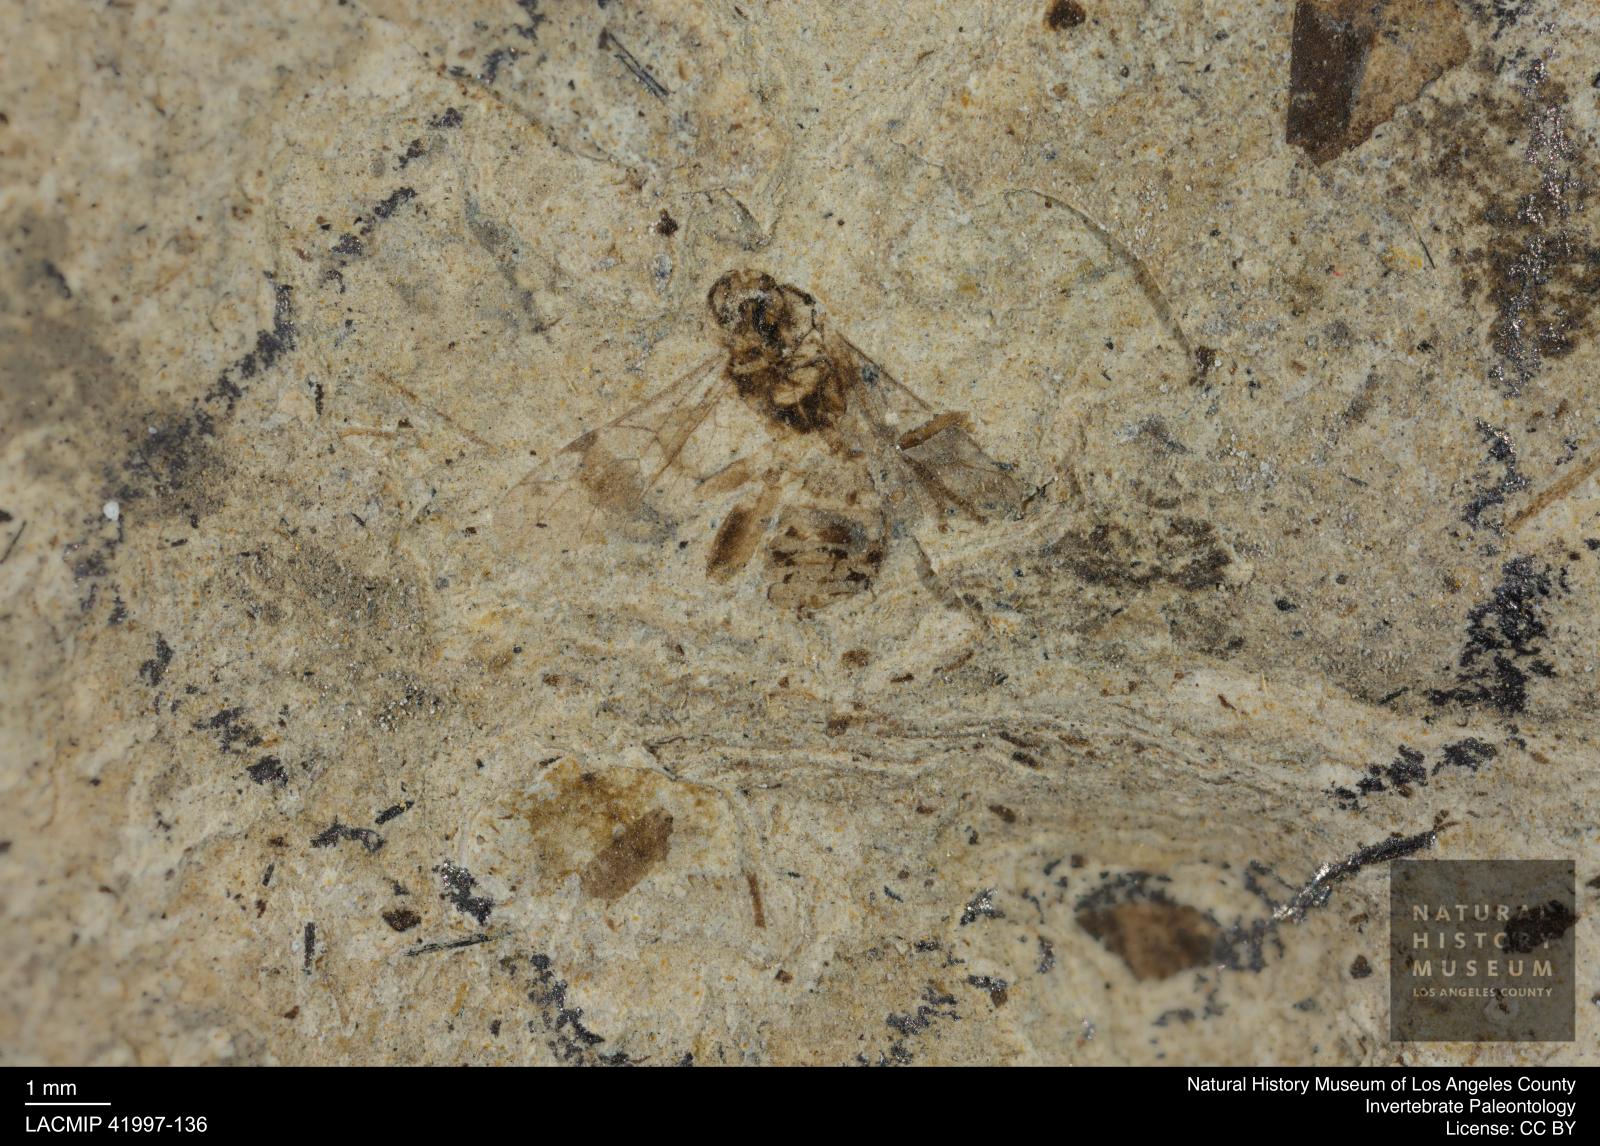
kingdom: Animalia
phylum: Arthropoda
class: Insecta
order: Hymenoptera
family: Ichneumonidae
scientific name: Ichneumonidae
